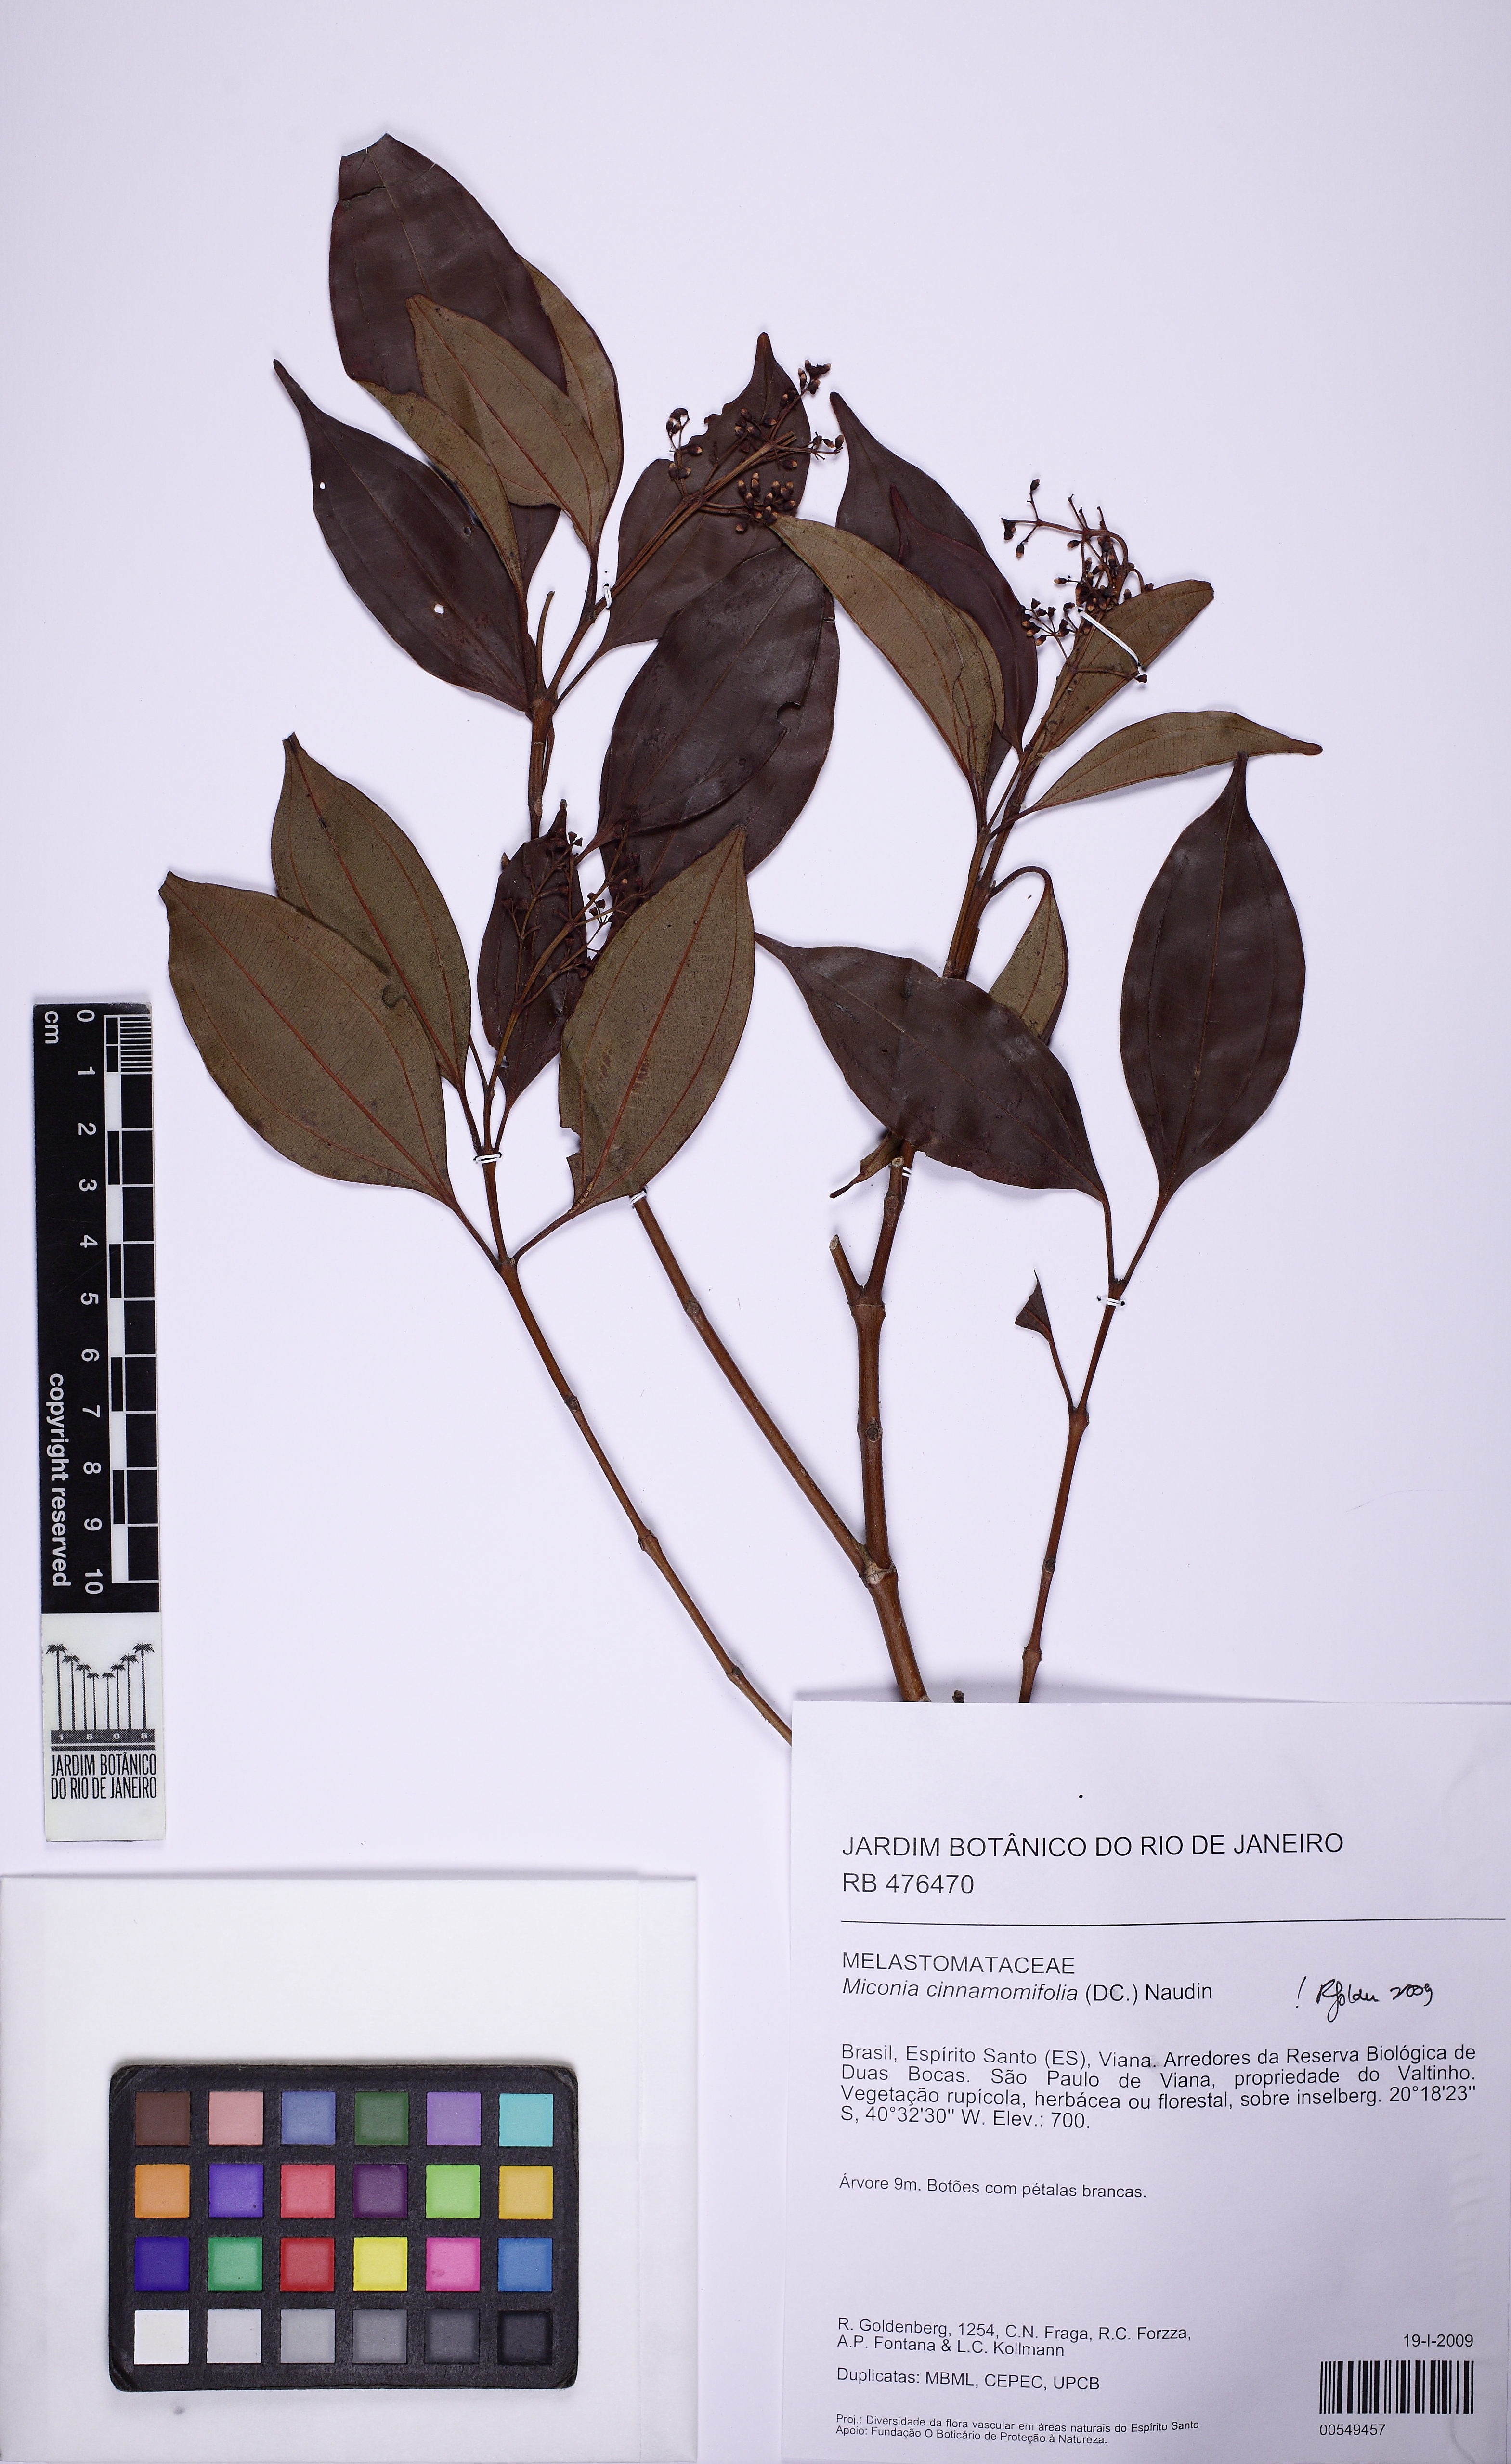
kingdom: Plantae
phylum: Tracheophyta
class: Magnoliopsida
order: Myrtales
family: Melastomataceae
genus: Miconia
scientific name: Miconia cinnamomifolia
